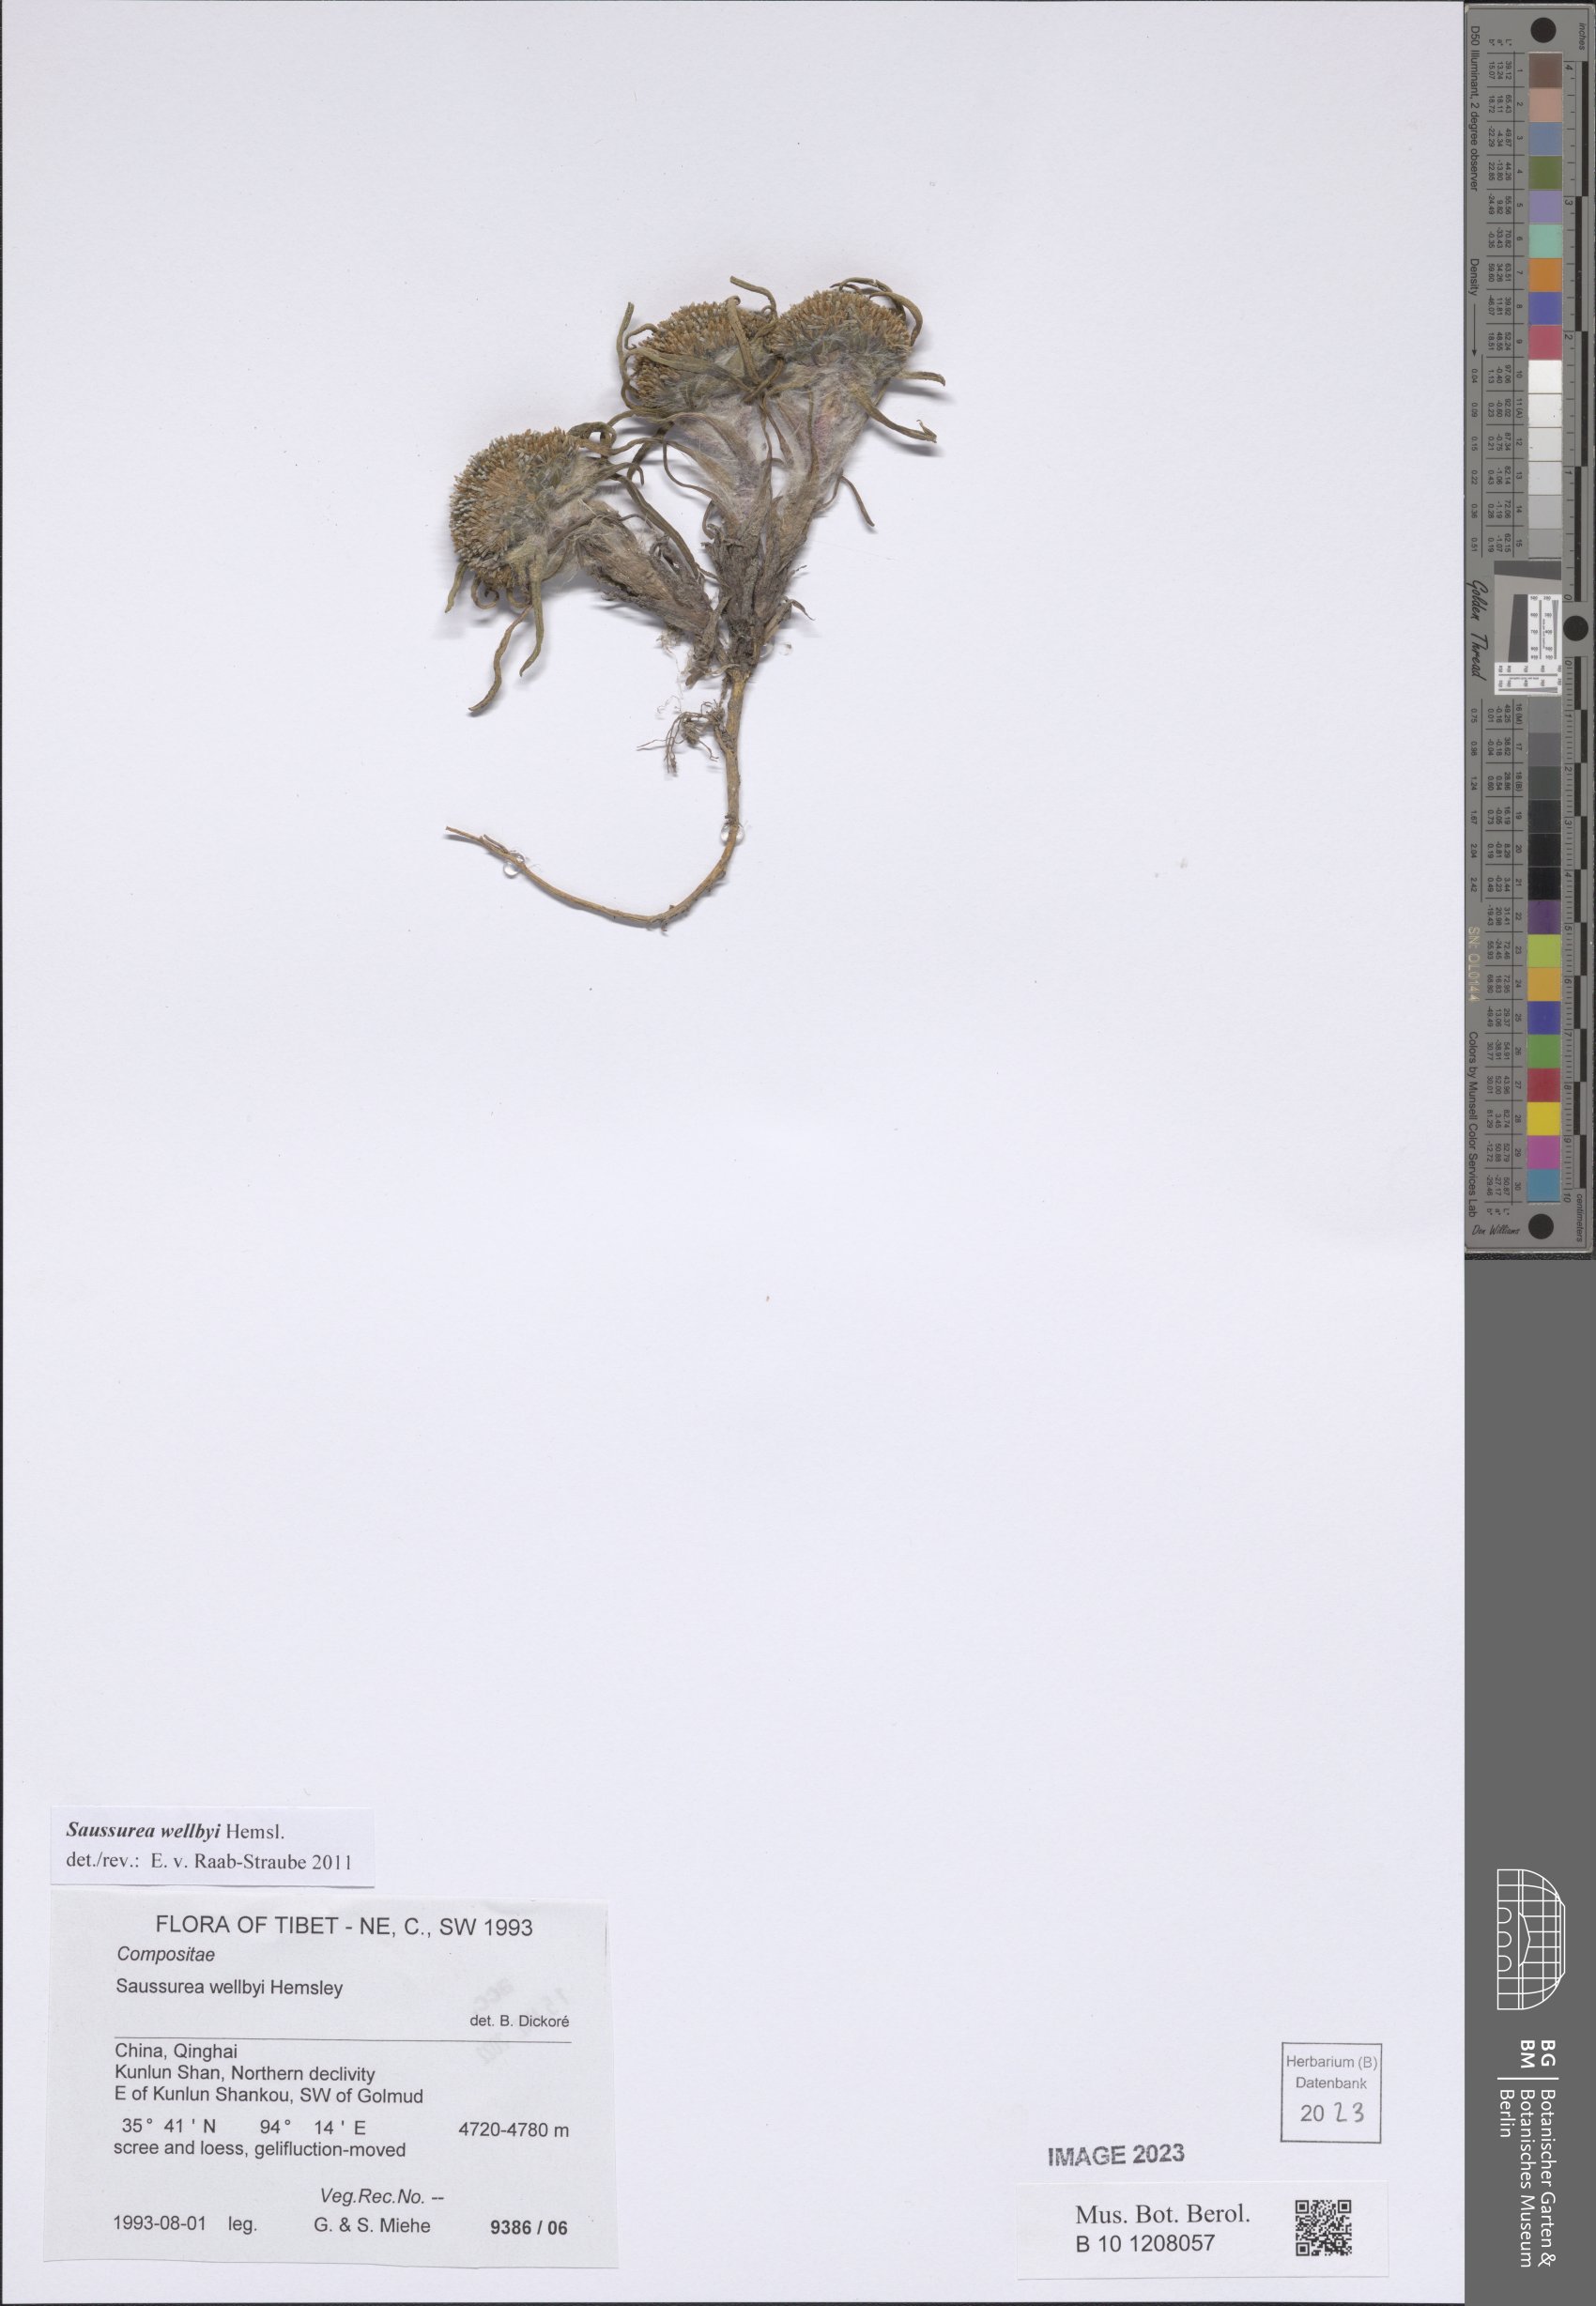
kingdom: Plantae
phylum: Tracheophyta
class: Magnoliopsida
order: Asterales
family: Asteraceae
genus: Saussurea
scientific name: Saussurea wellbyi
